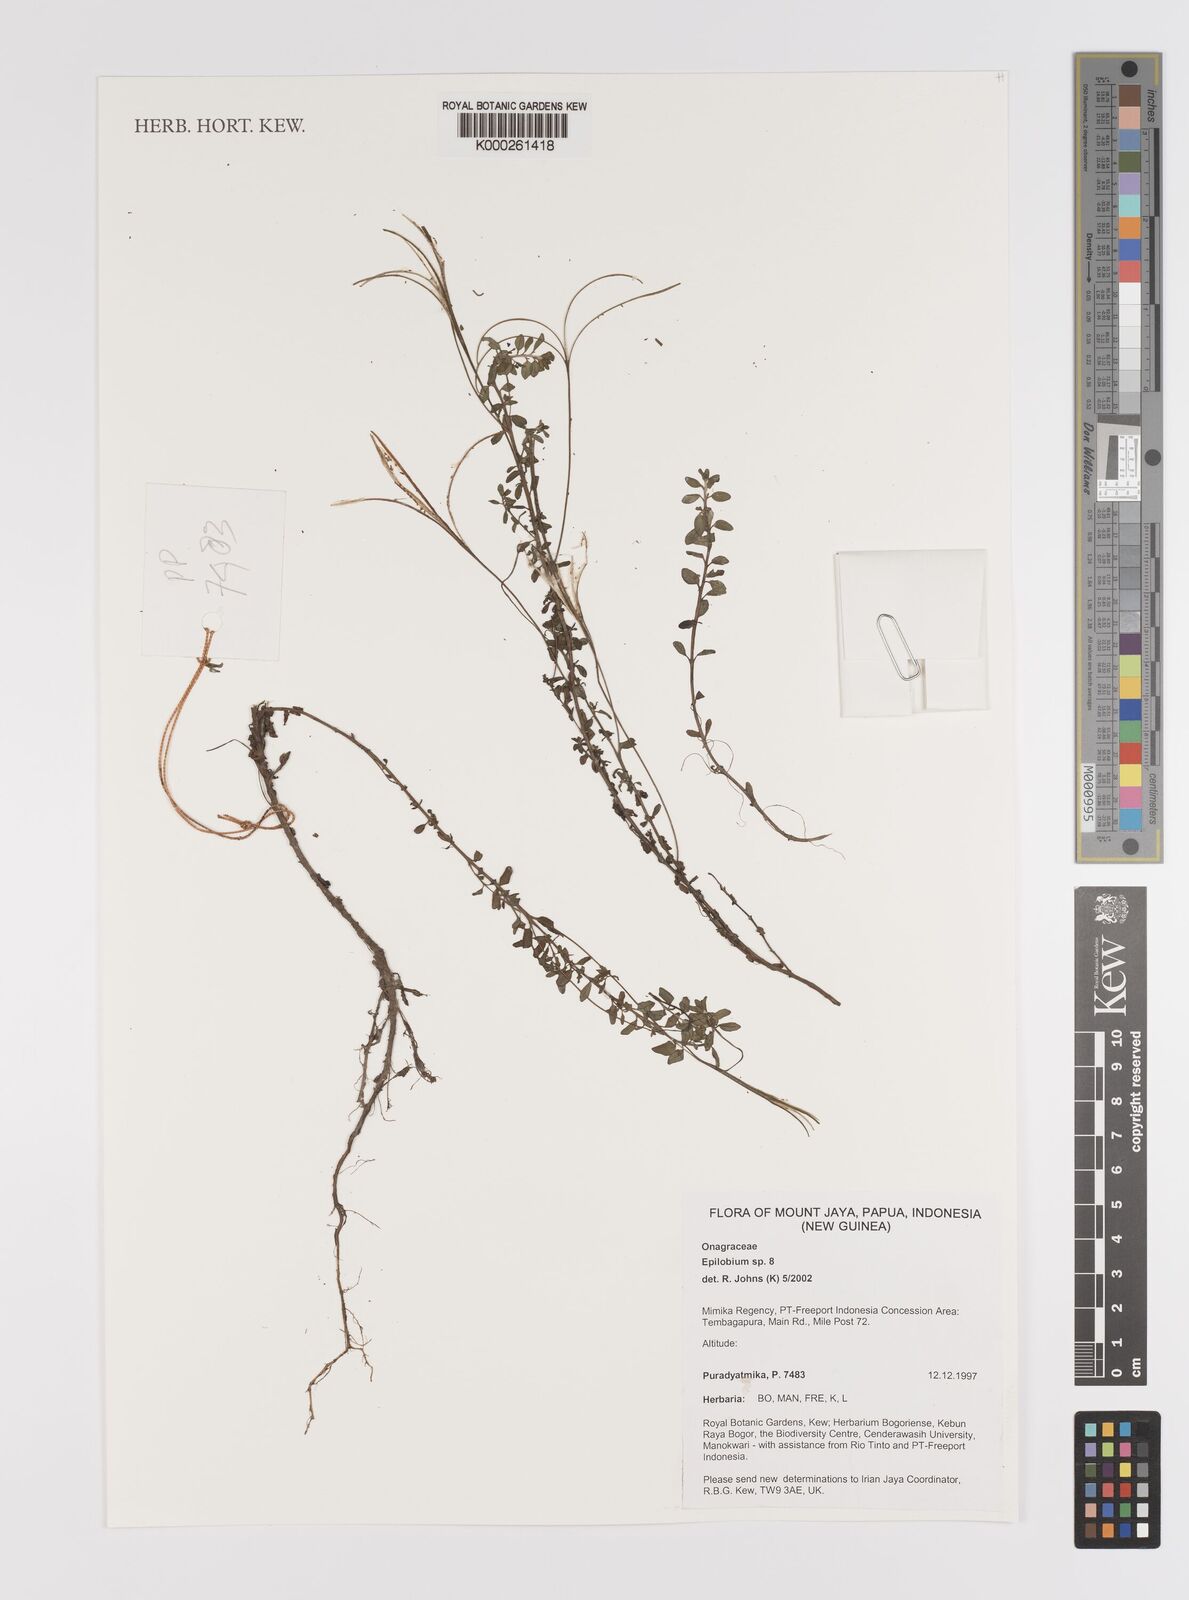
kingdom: Plantae
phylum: Tracheophyta
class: Magnoliopsida
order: Myrtales
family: Onagraceae
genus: Epilobium
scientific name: Epilobium
